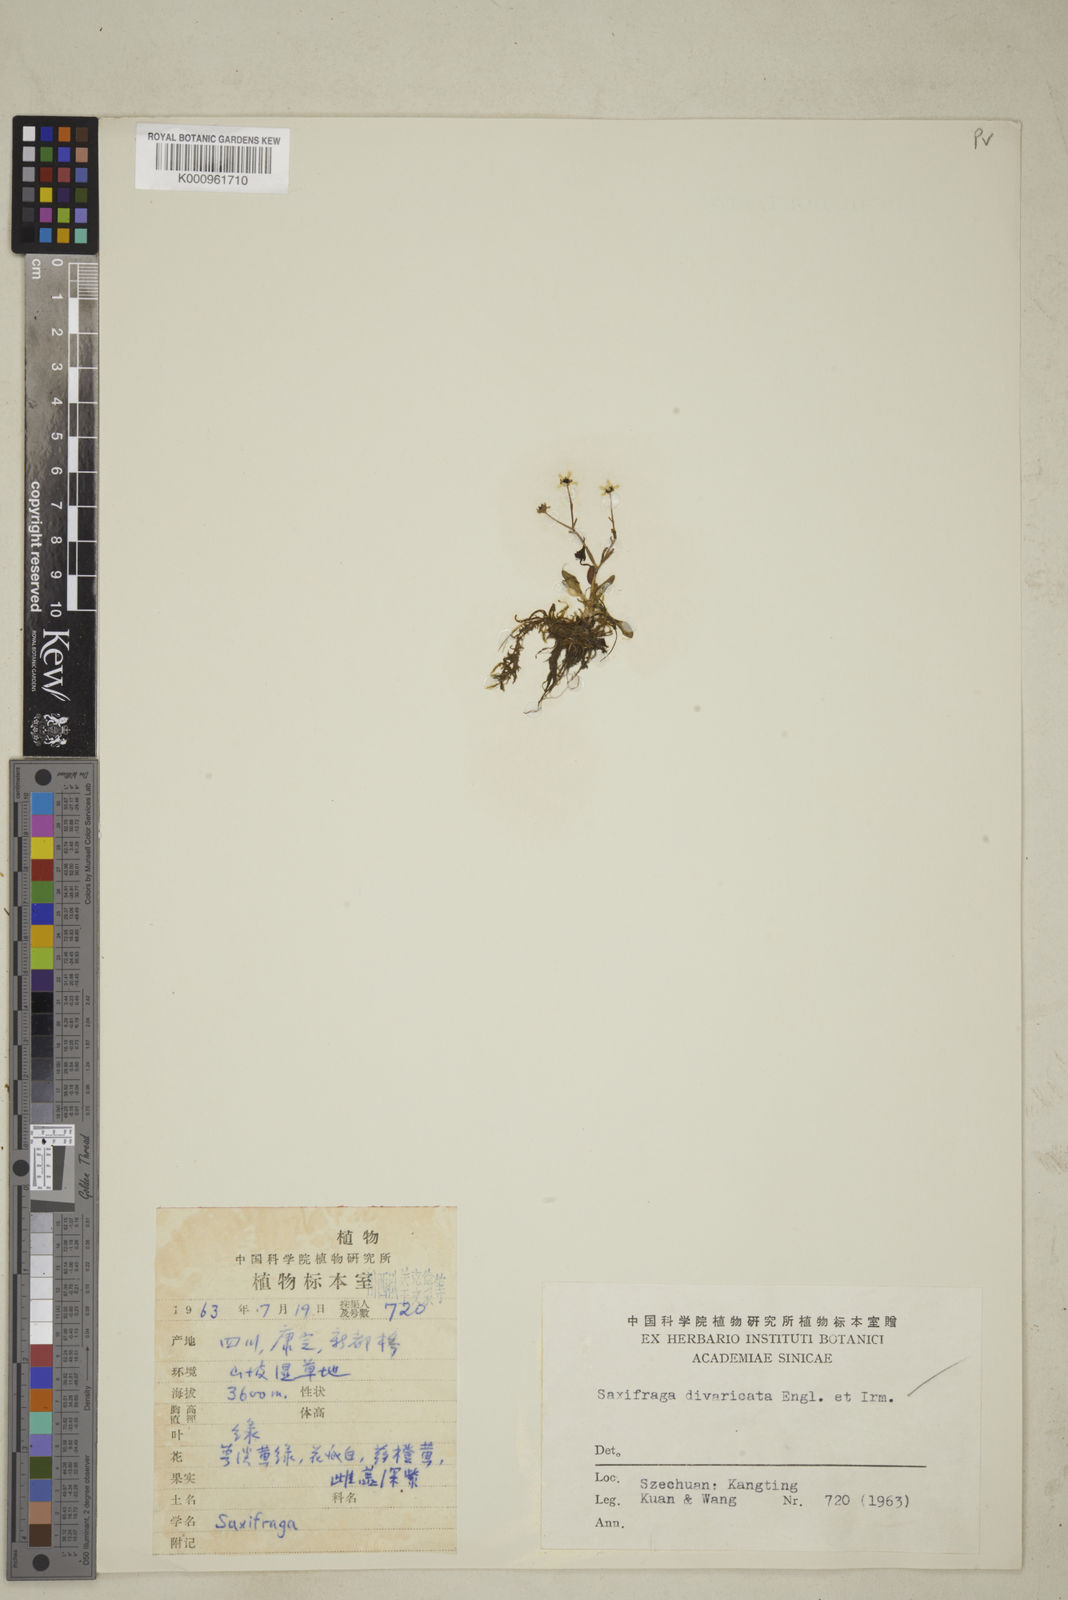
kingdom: Plantae
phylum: Tracheophyta
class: Magnoliopsida
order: Saxifragales
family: Saxifragaceae
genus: Micranthes
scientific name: Micranthes divaricata
